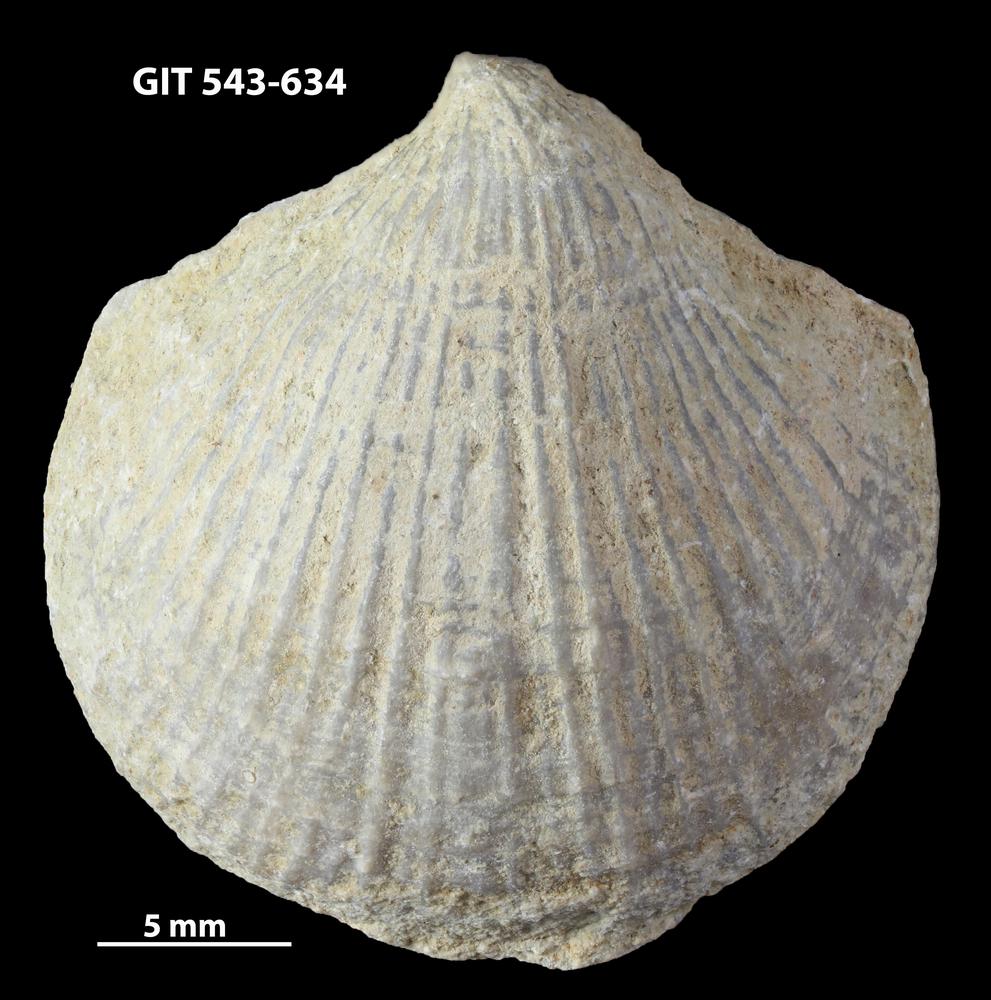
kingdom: Animalia
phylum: Brachiopoda
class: Rhynchonellata
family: Clitambonitidae
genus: Vellamo
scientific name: Vellamo Orthis verneuili
